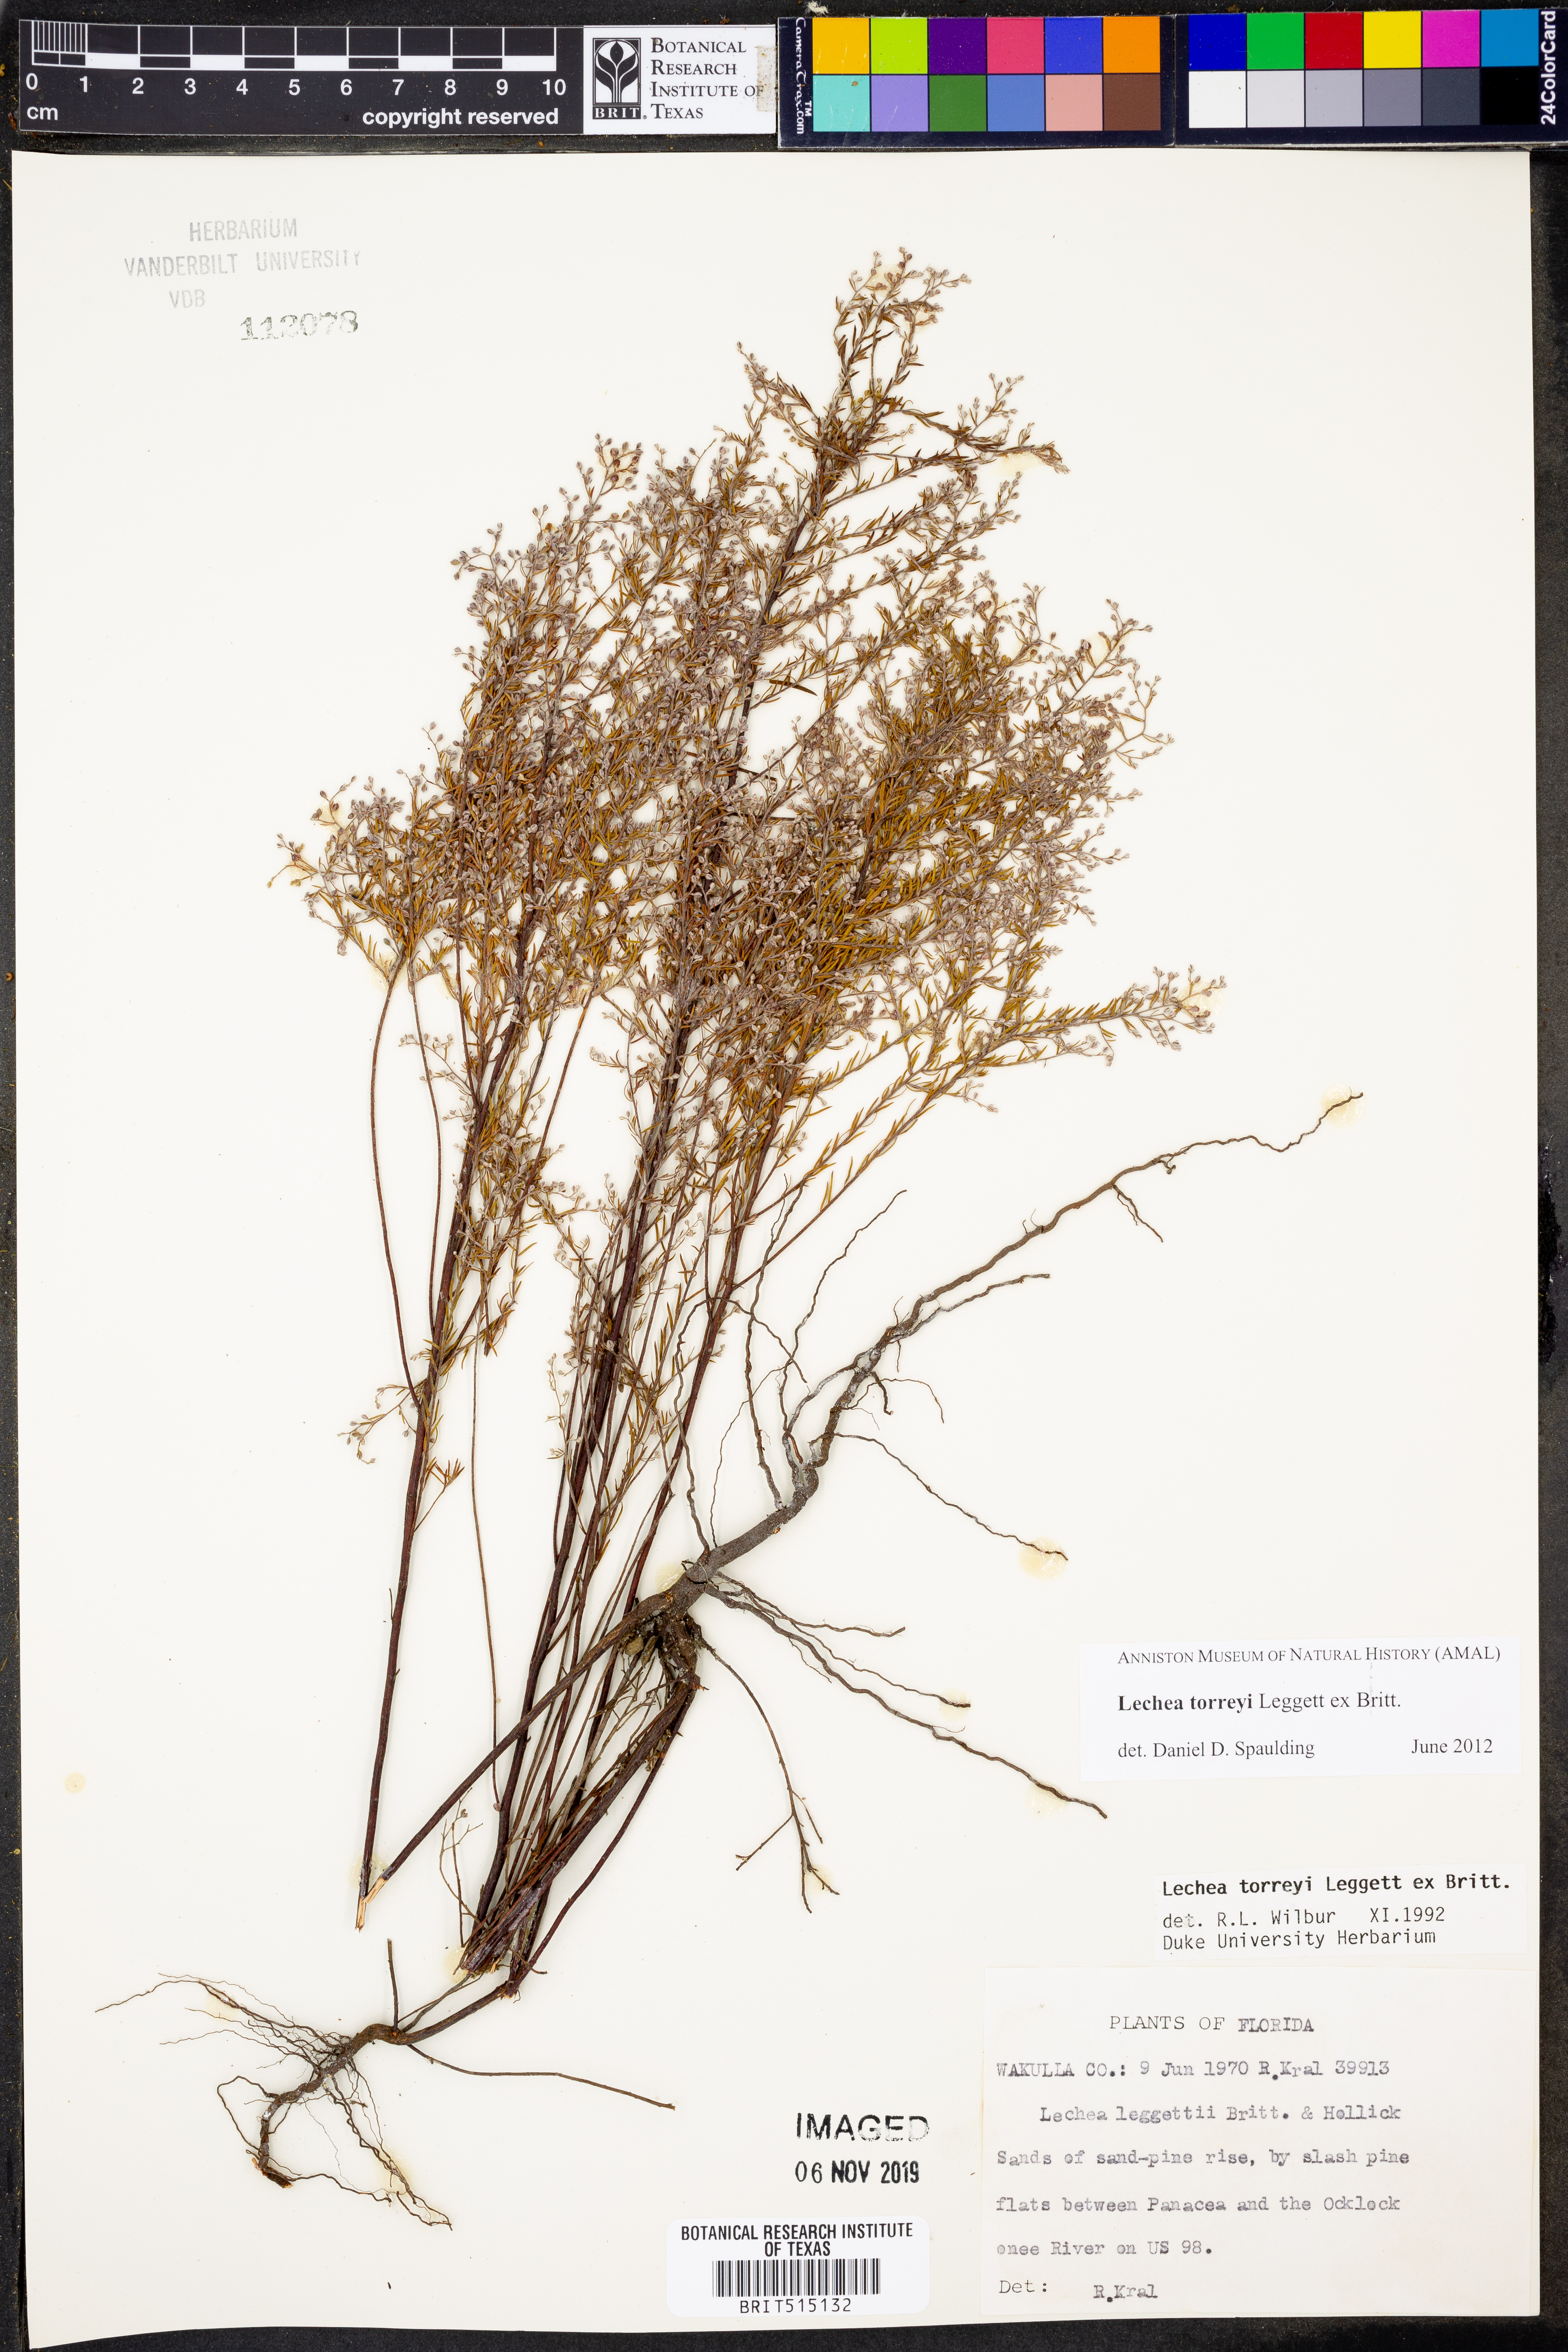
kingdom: Plantae
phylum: Tracheophyta
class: Magnoliopsida
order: Malvales
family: Cistaceae
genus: Lechea
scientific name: Lechea torreyi
